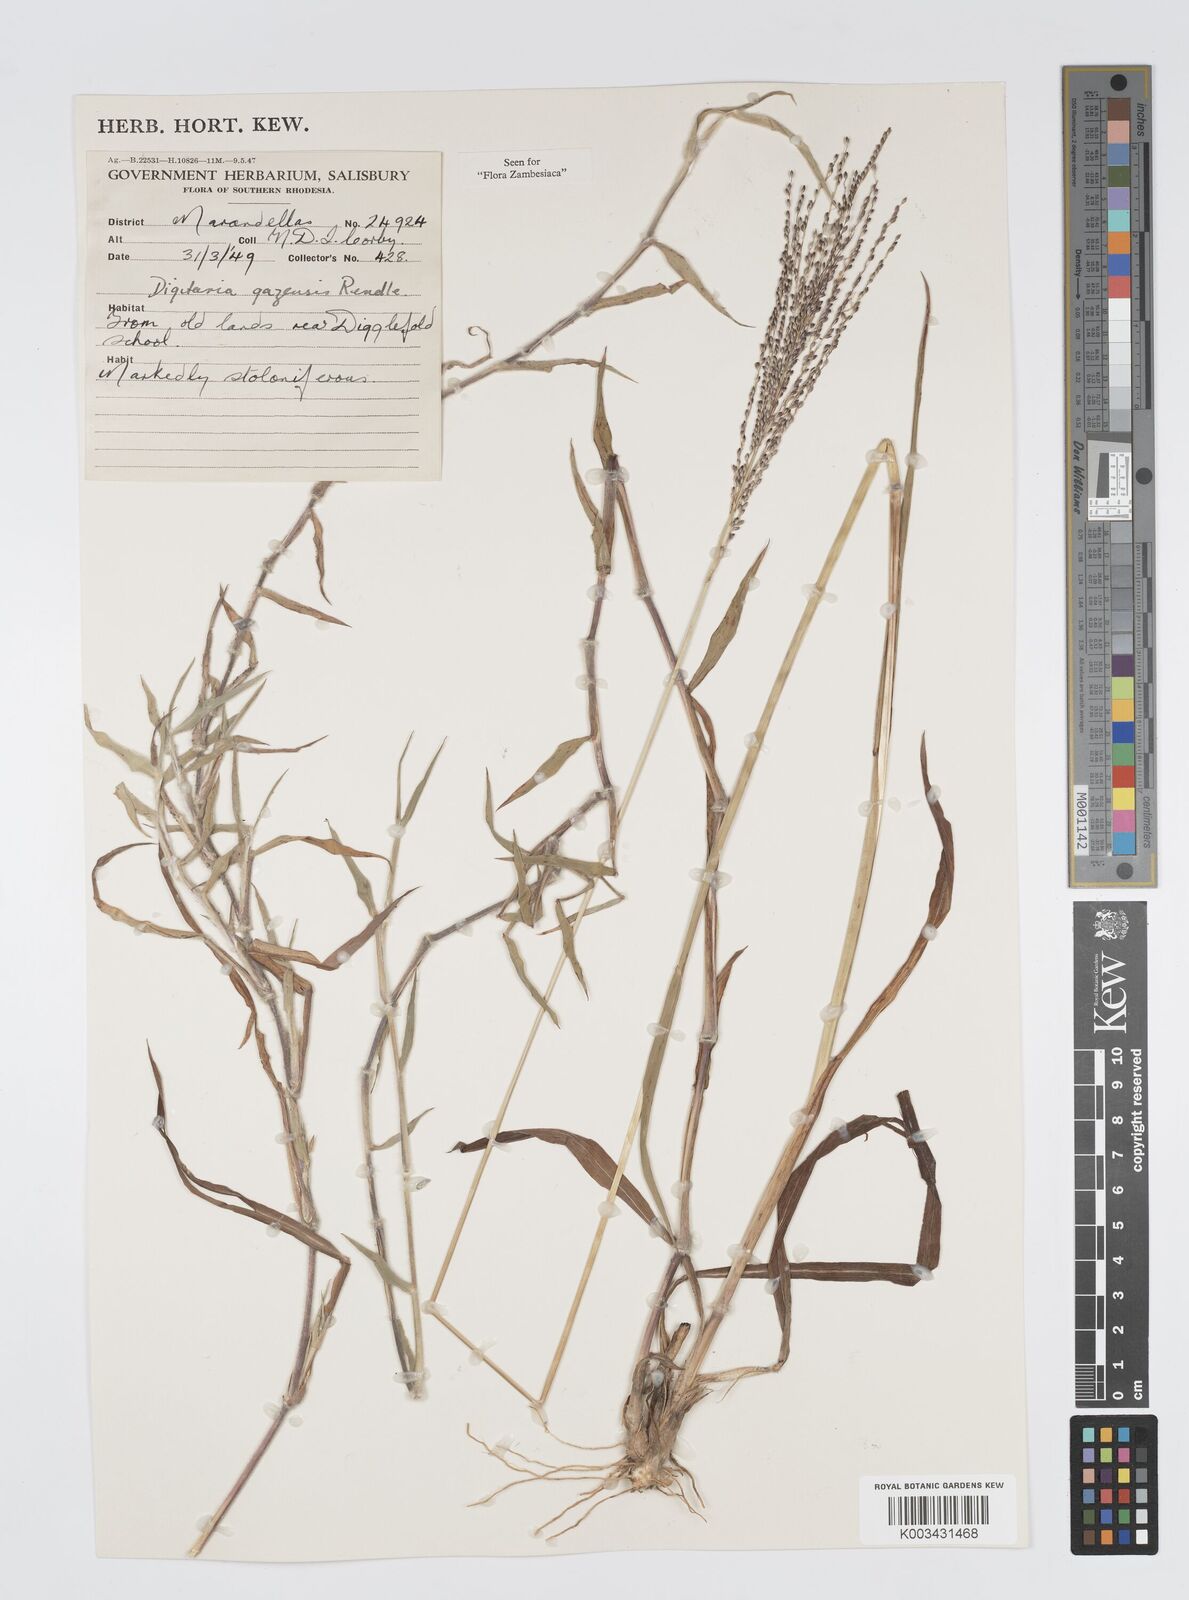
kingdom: Plantae
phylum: Tracheophyta
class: Liliopsida
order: Poales
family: Poaceae
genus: Digitaria
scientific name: Digitaria gazensis
